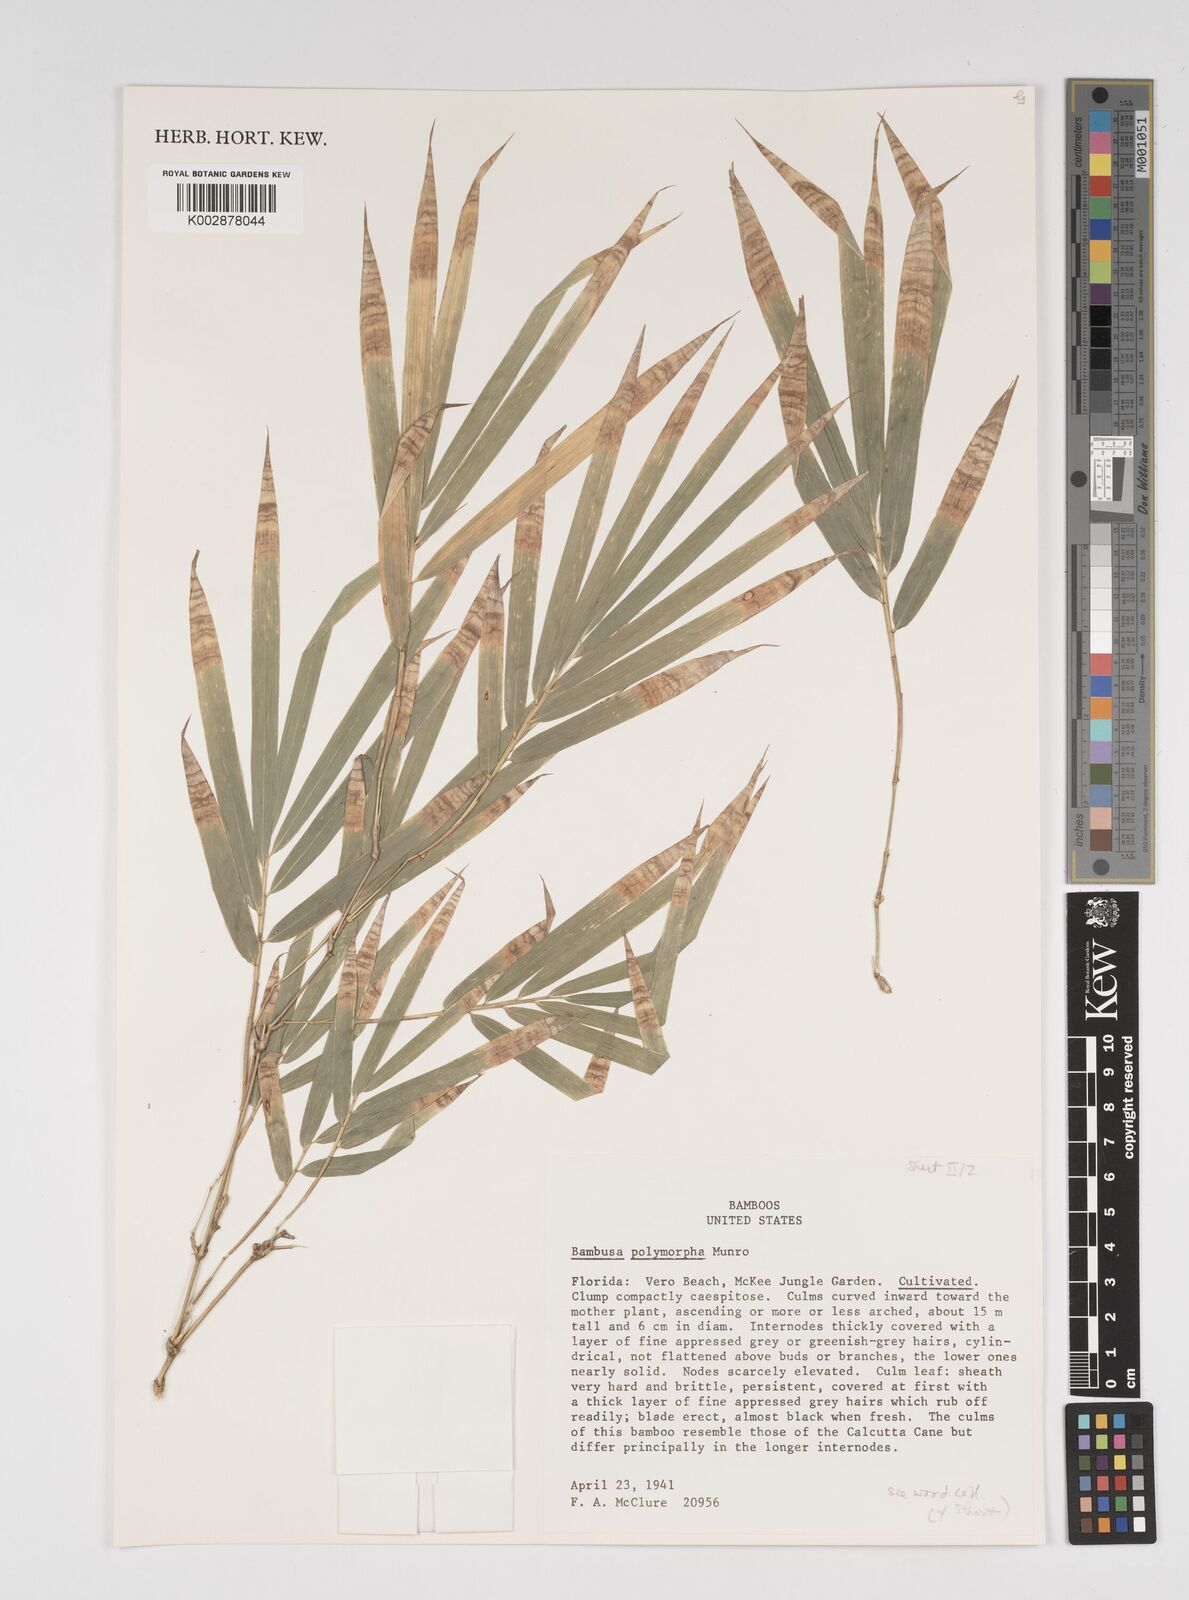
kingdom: Plantae
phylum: Tracheophyta
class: Liliopsida
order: Poales
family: Poaceae
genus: Bambusa
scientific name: Bambusa polymorpha
